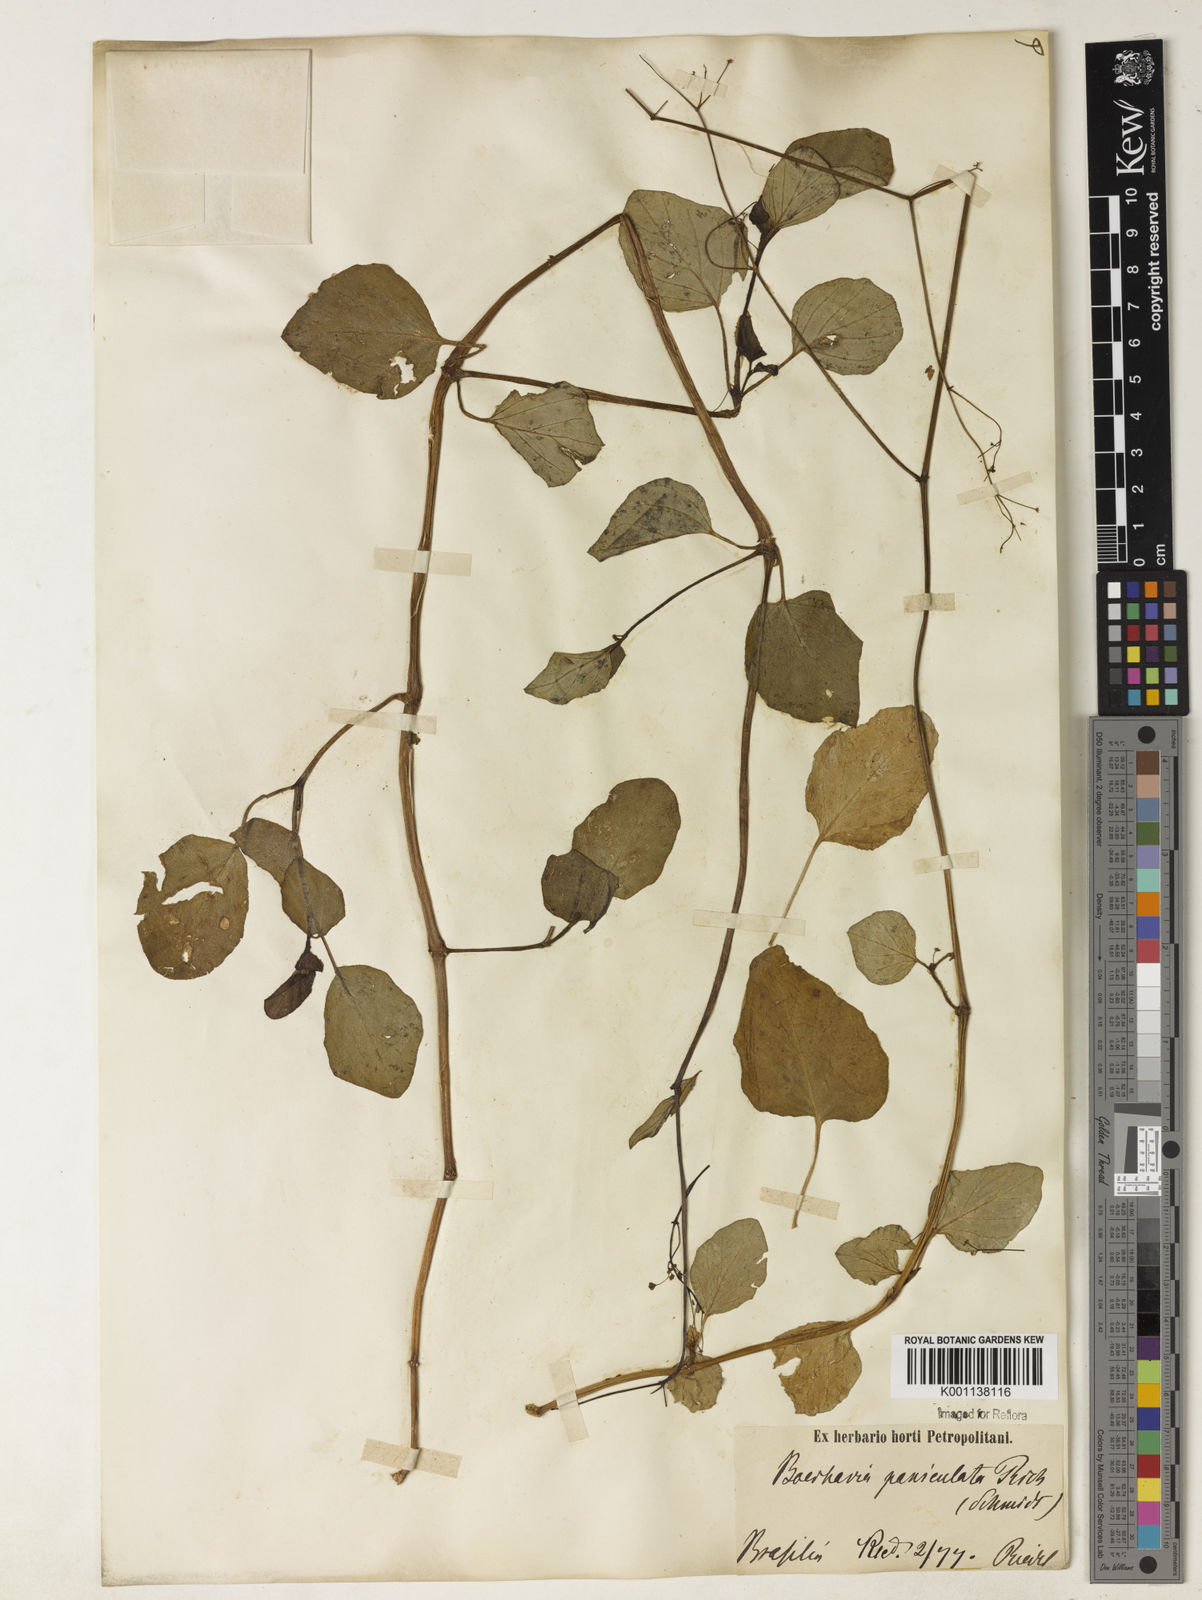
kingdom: Plantae
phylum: Tracheophyta
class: Magnoliopsida
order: Caryophyllales
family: Nyctaginaceae
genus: Boerhavia
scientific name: Boerhavia diffusa
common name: Red spiderling
